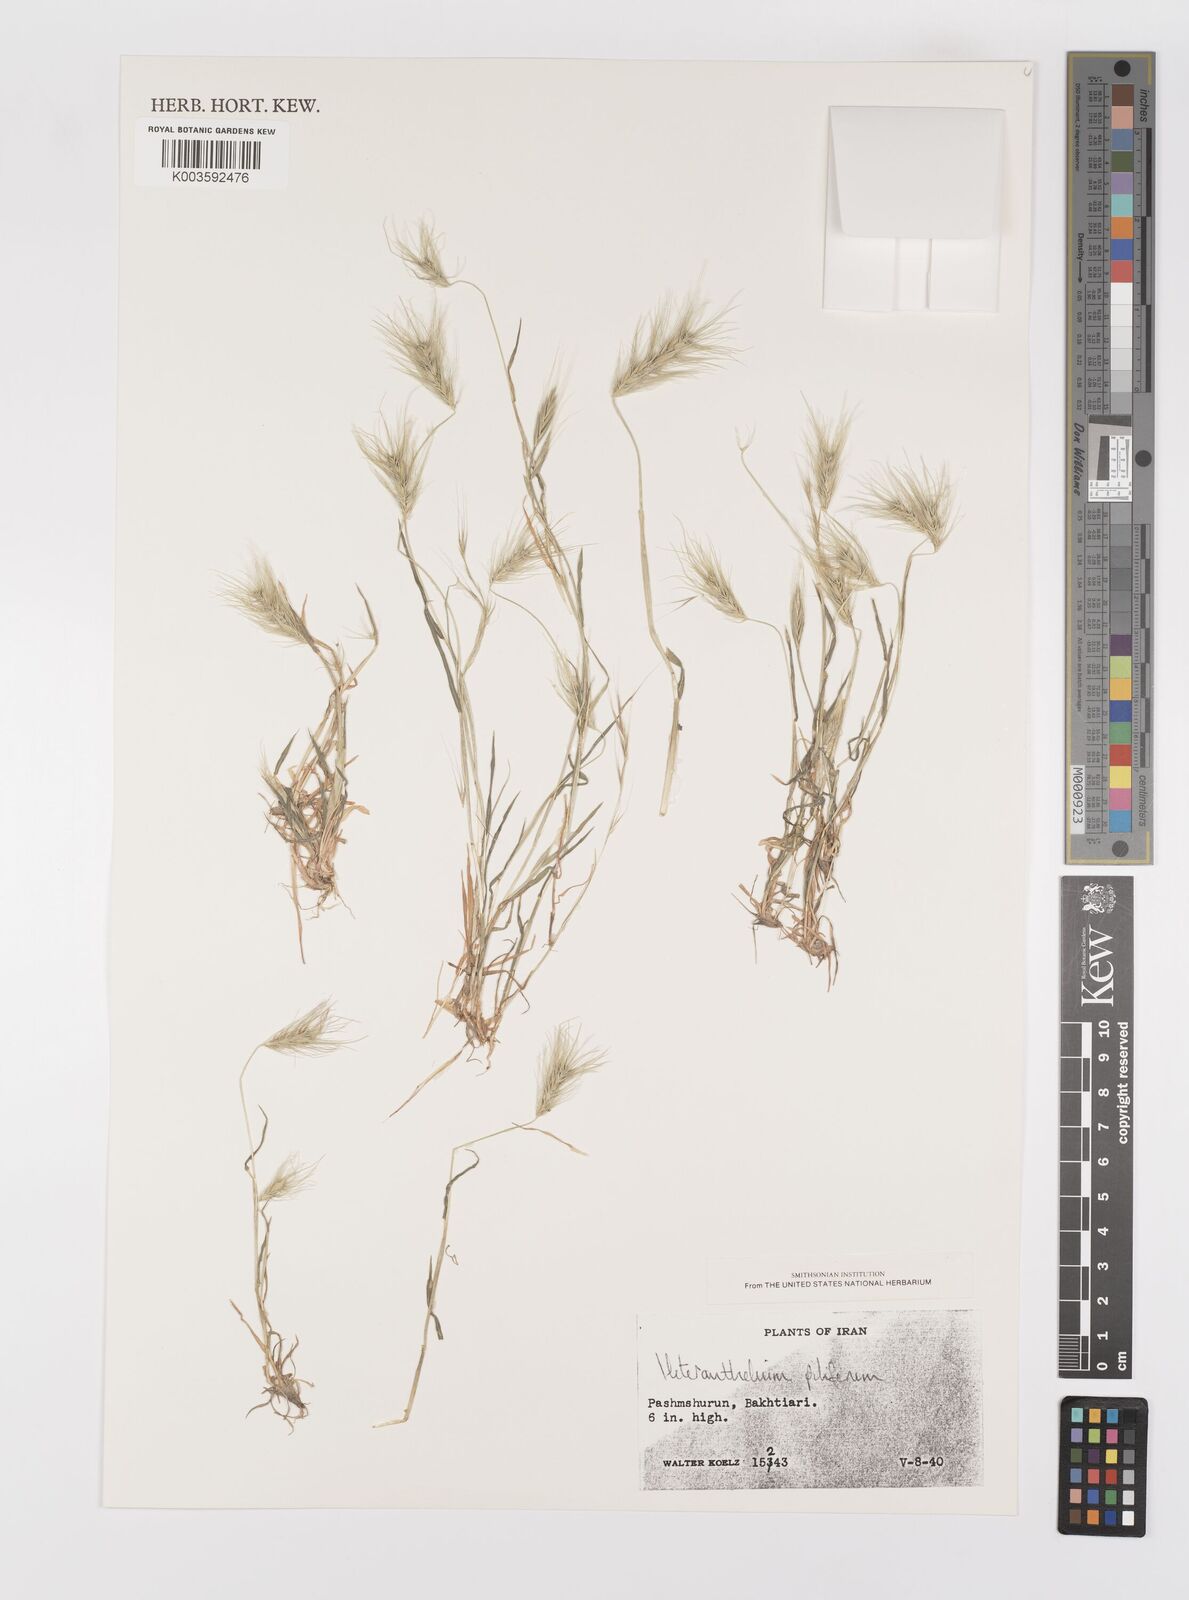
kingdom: Plantae
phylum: Tracheophyta
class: Liliopsida
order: Poales
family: Poaceae
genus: Heteranthelium
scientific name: Heteranthelium piliferum
